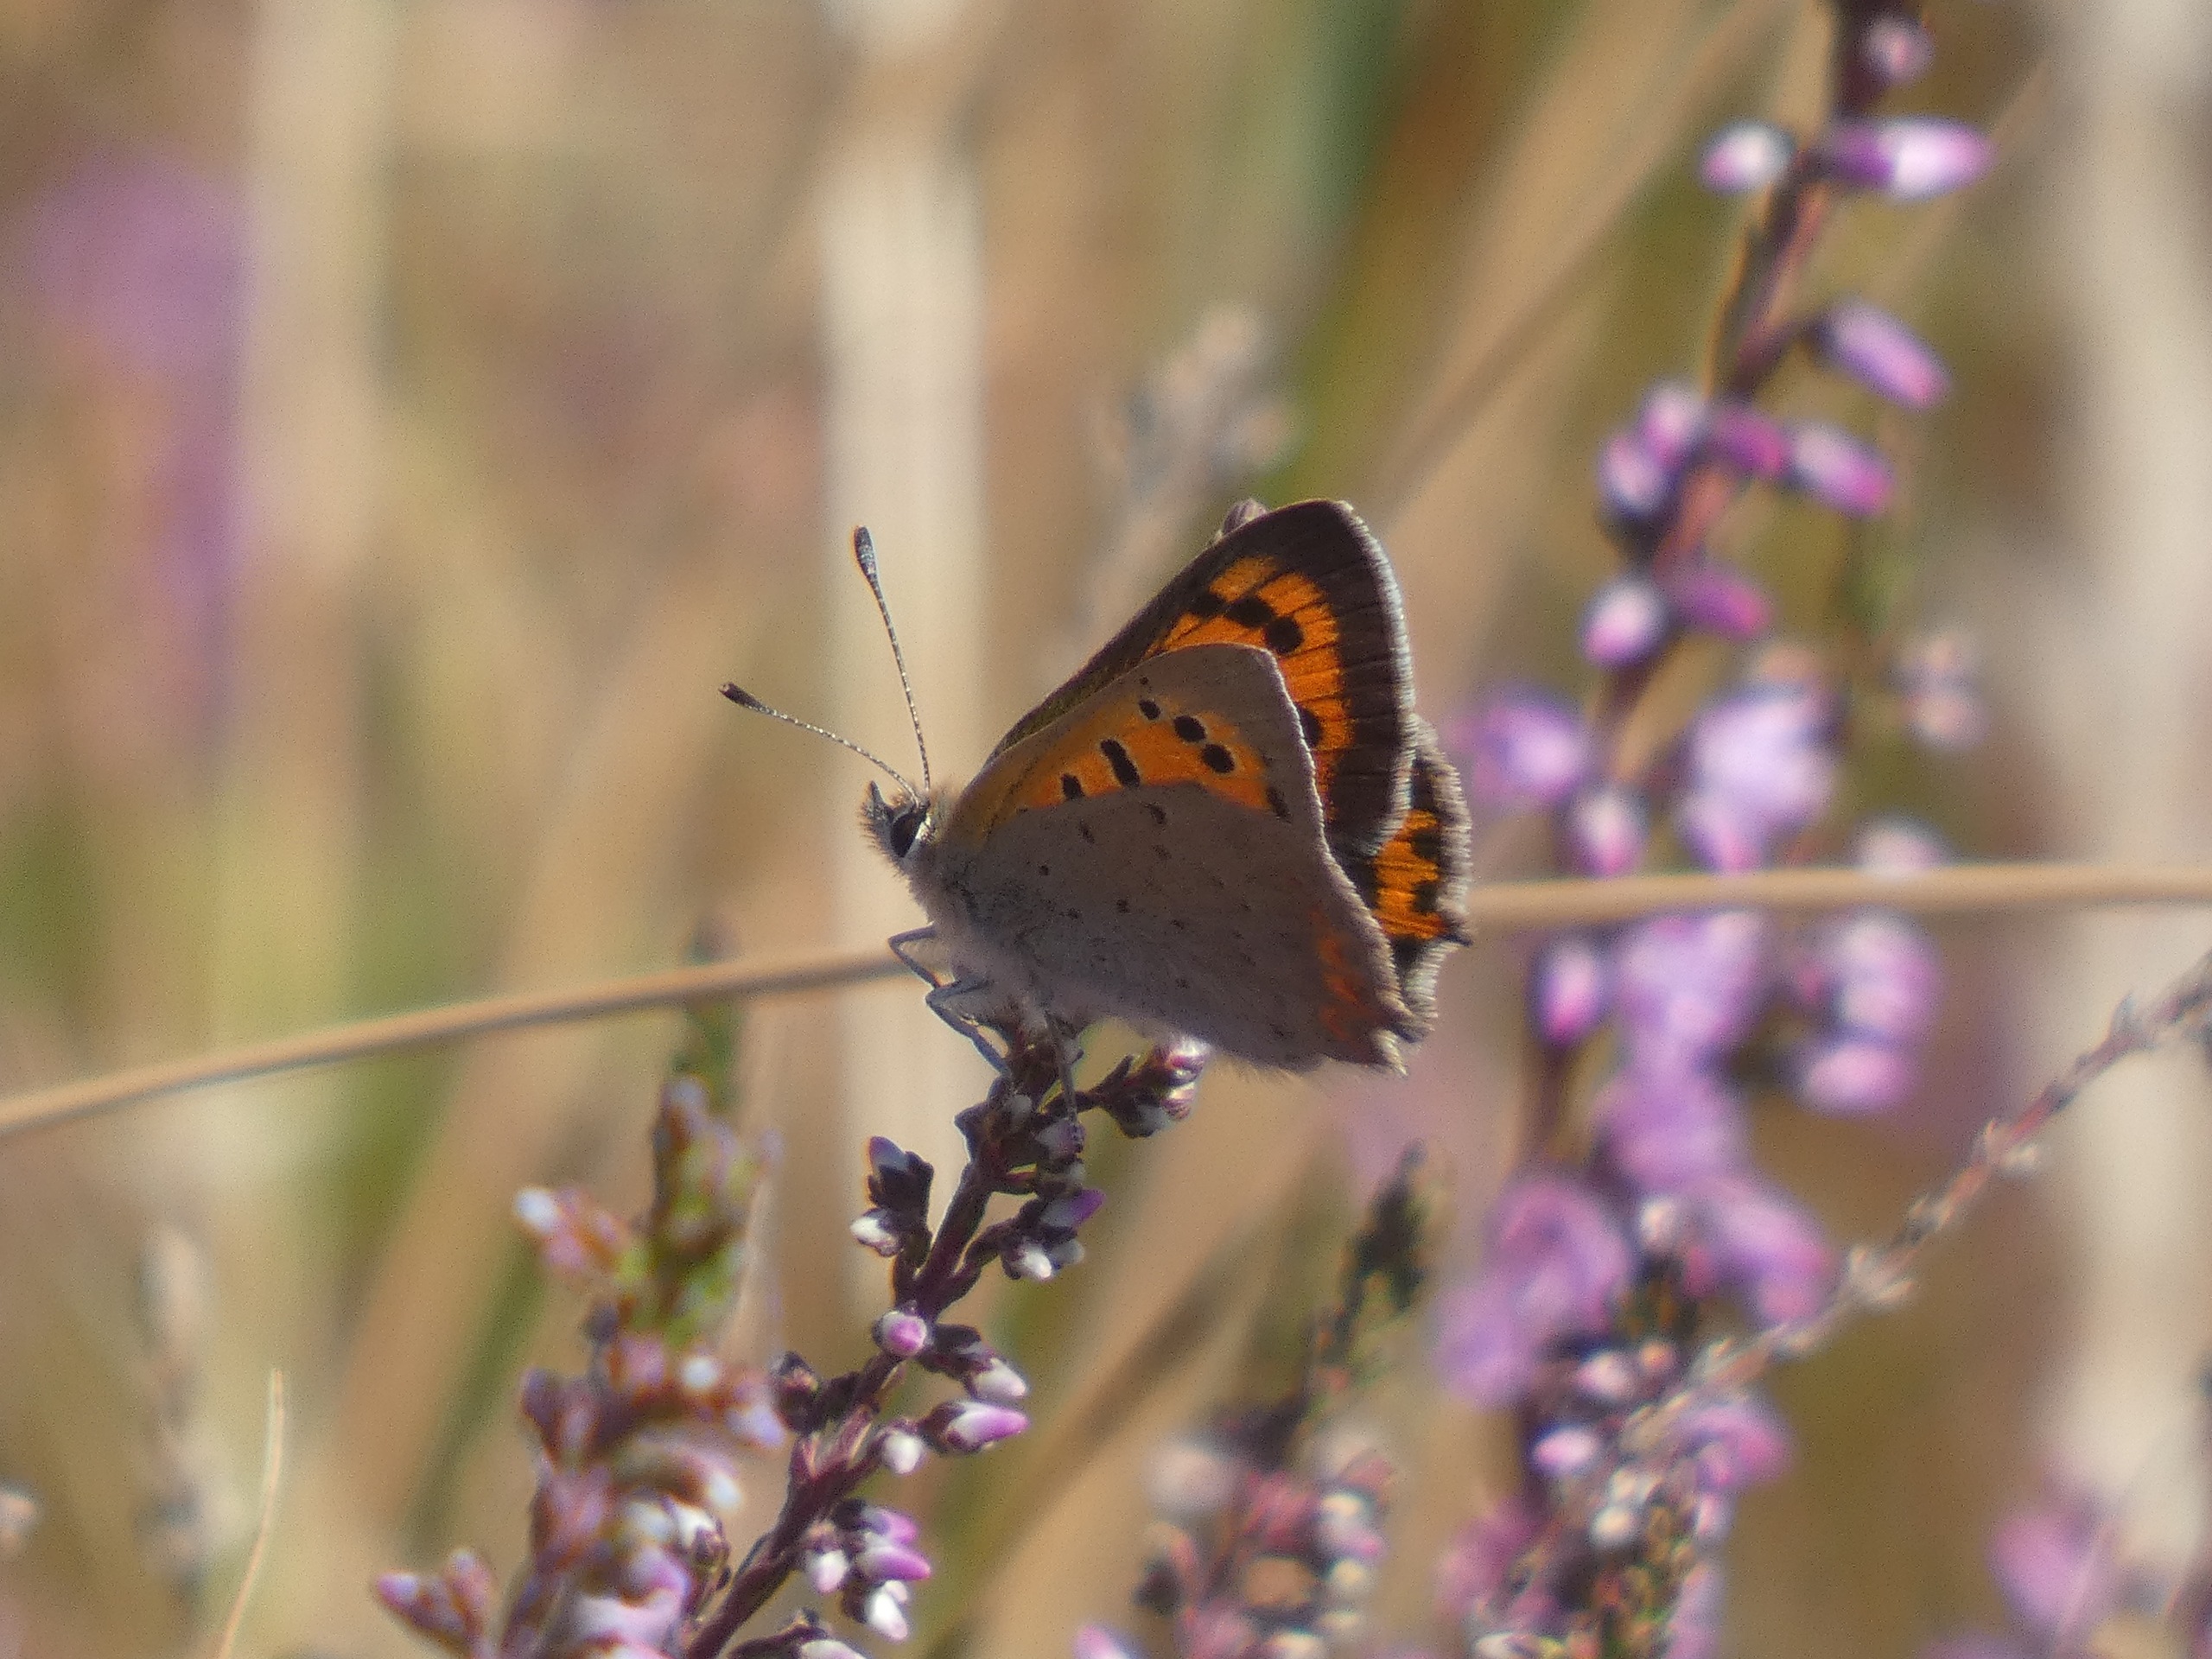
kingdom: Animalia
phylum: Arthropoda
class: Insecta
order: Lepidoptera
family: Lycaenidae
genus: Lycaena
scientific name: Lycaena phlaeas
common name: Lille ildfugl
